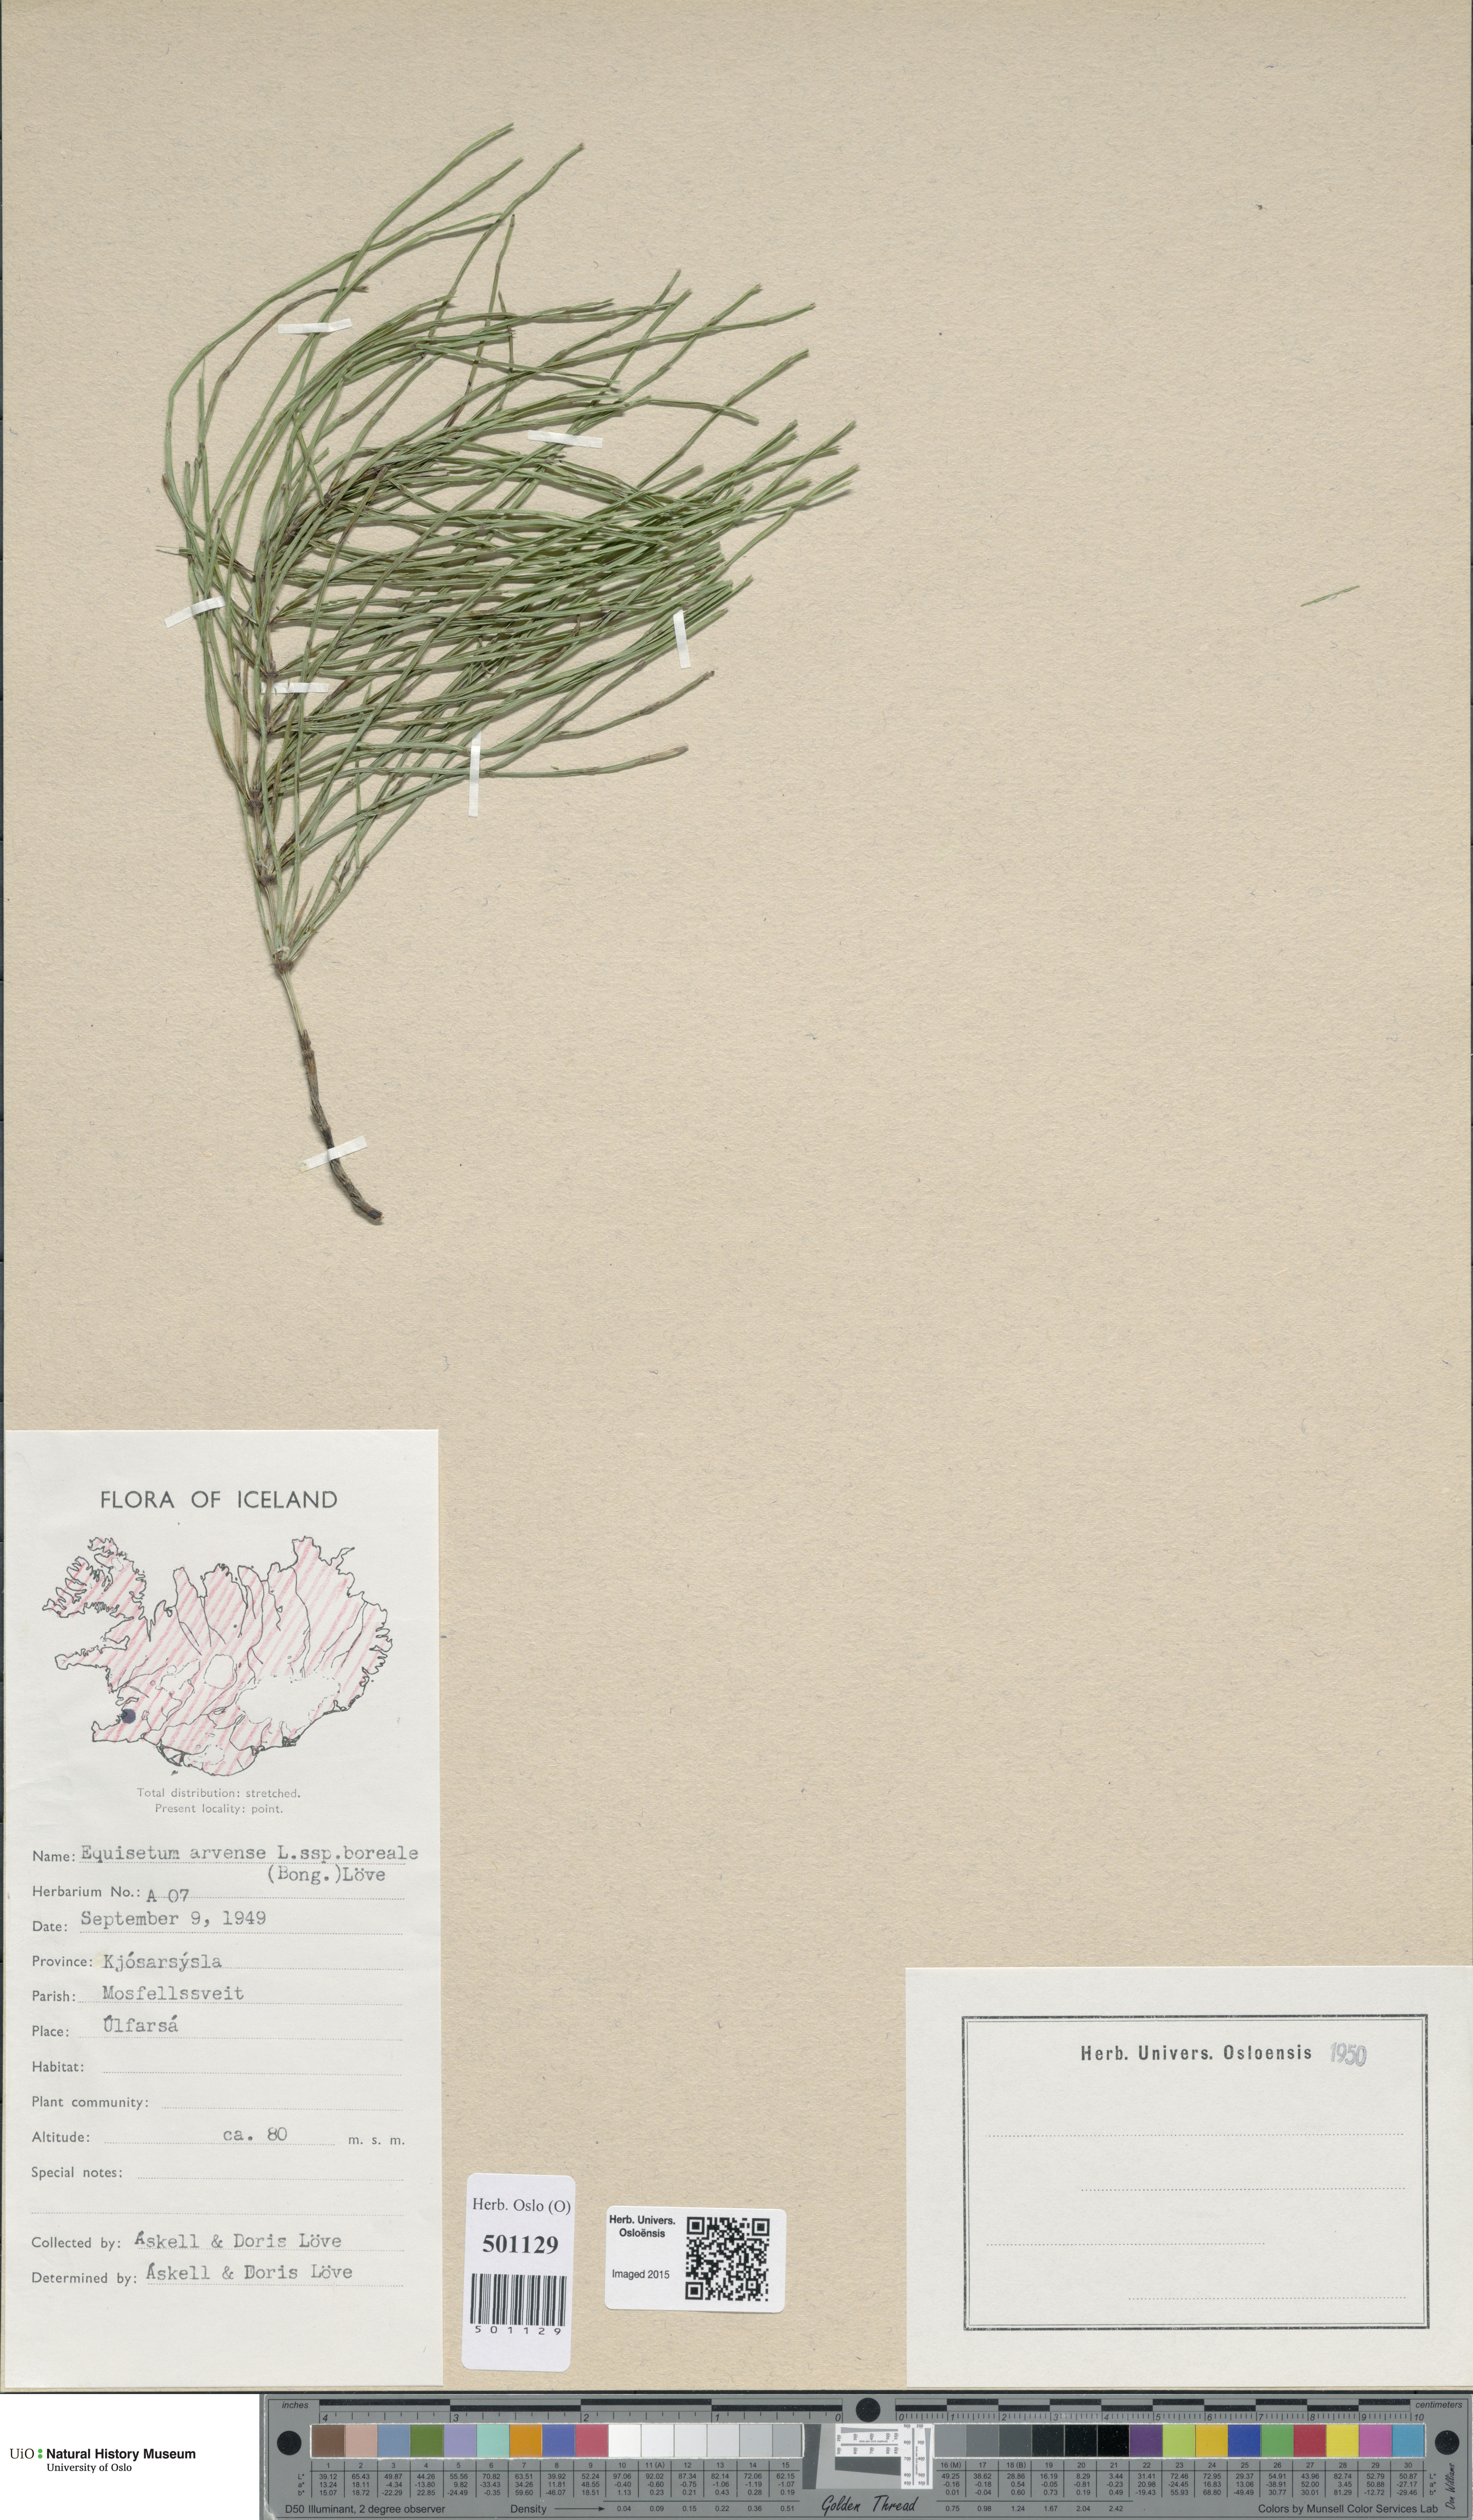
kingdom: Plantae
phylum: Tracheophyta
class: Polypodiopsida
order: Equisetales
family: Equisetaceae
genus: Equisetum
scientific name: Equisetum arvense
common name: Field horsetail
